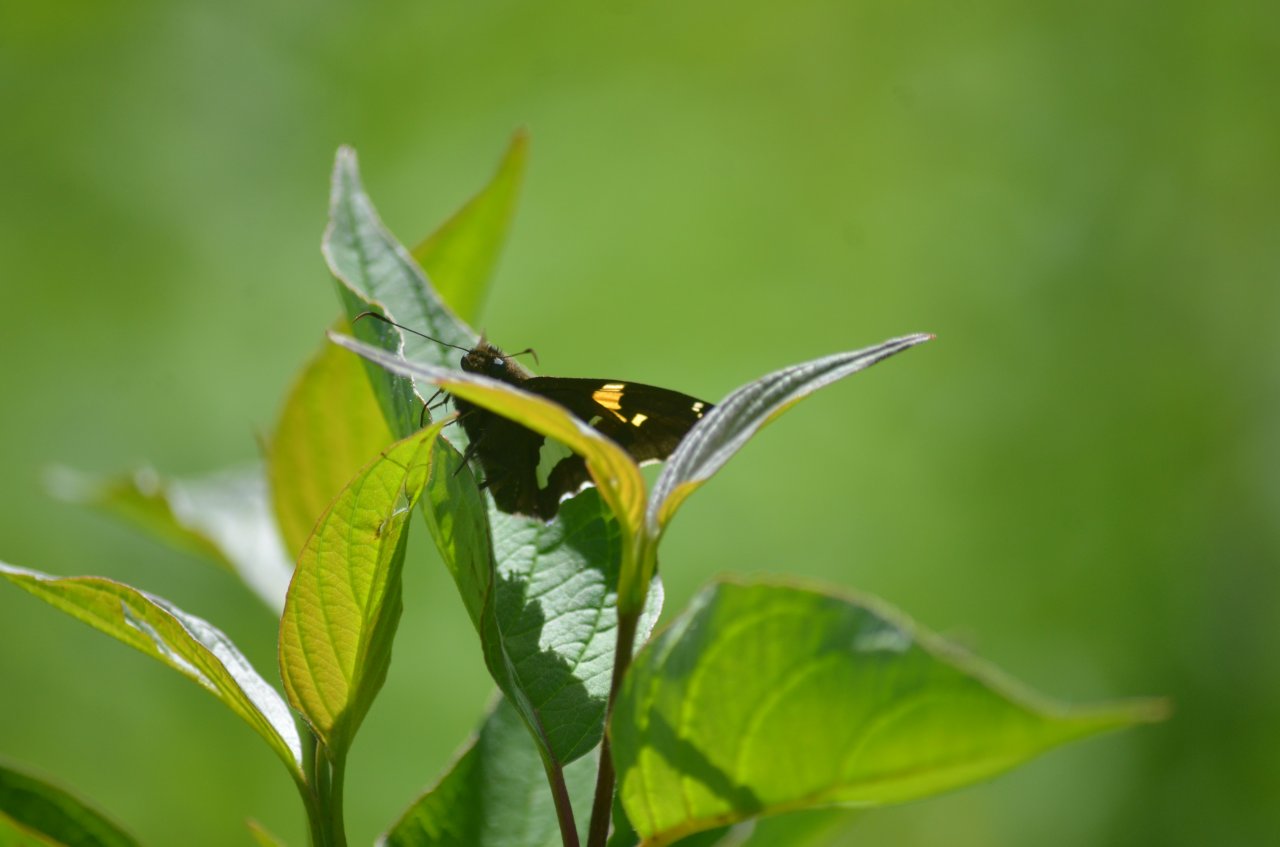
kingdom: Animalia
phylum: Arthropoda
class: Insecta
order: Lepidoptera
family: Hesperiidae
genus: Epargyreus
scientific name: Epargyreus clarus
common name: Silver-spotted Skipper
